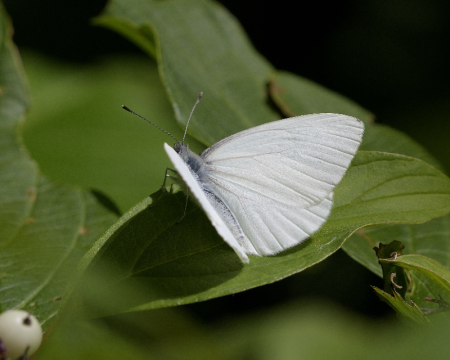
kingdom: Animalia
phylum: Arthropoda
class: Insecta
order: Lepidoptera
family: Pieridae
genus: Pieris
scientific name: Pieris oleracea
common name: Mustard White
